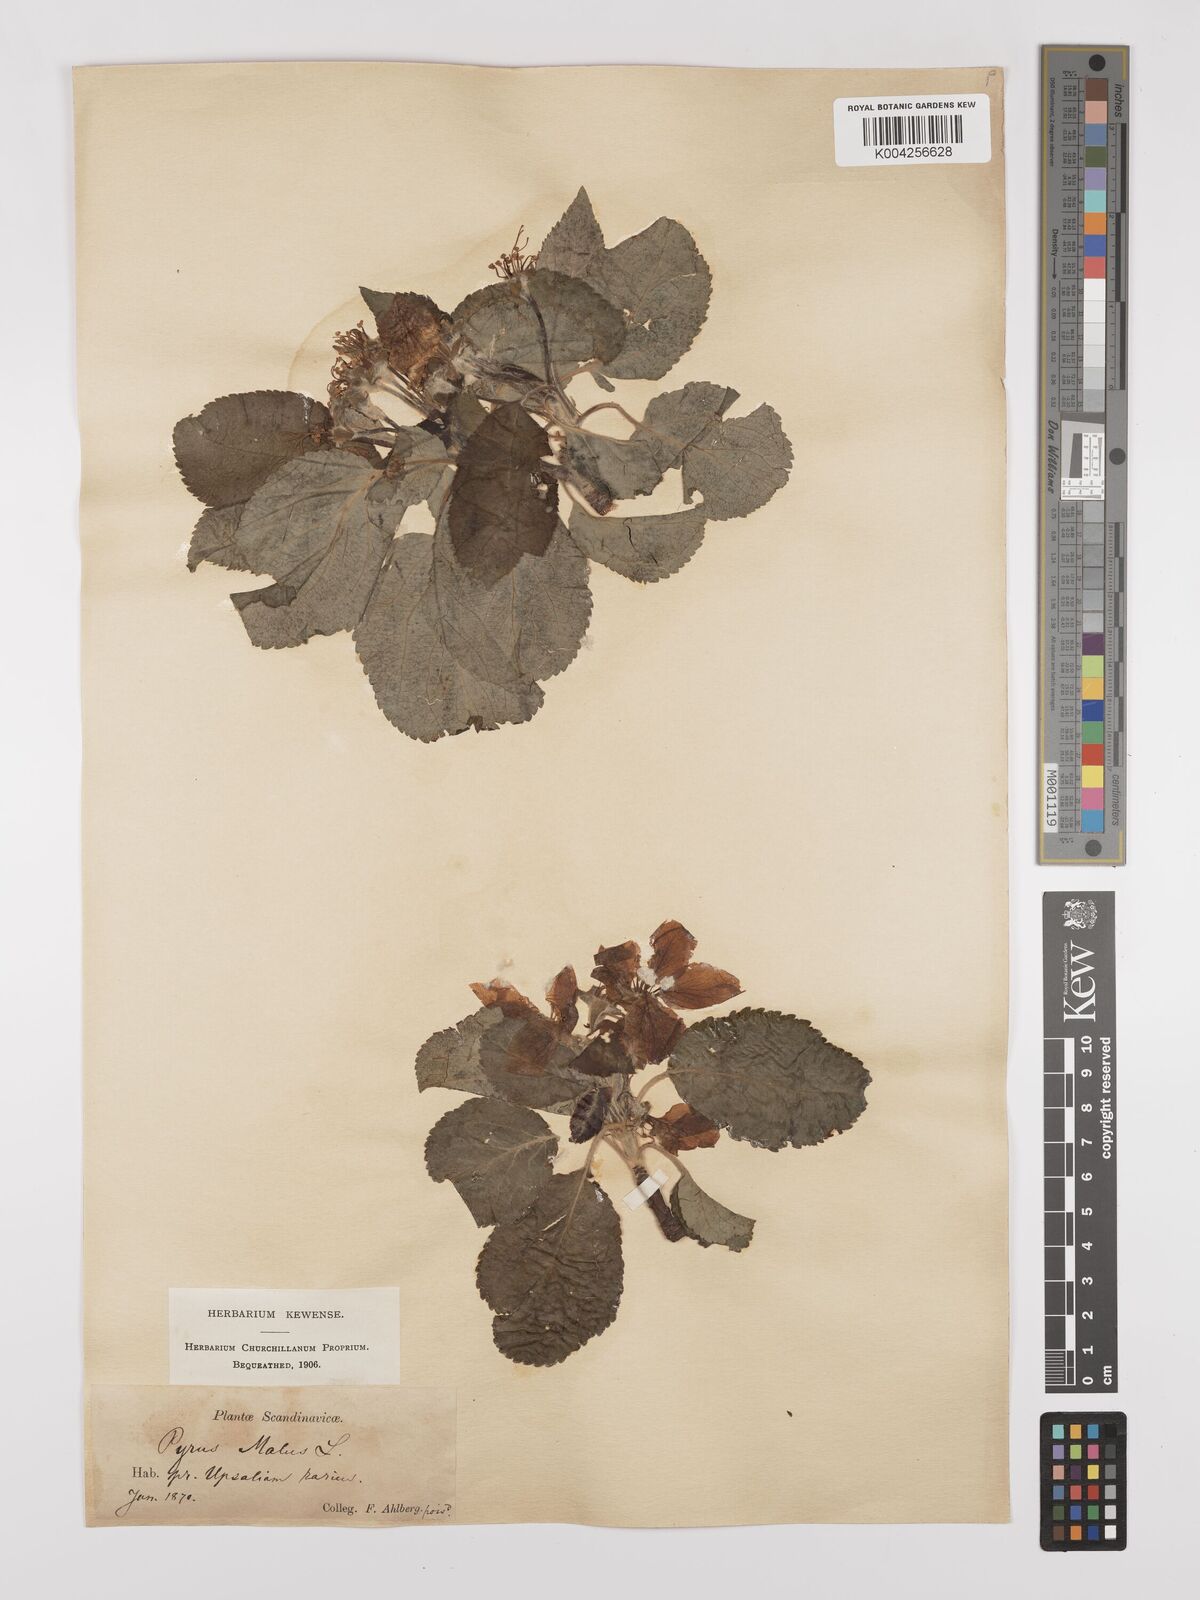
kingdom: Plantae
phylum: Tracheophyta
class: Magnoliopsida
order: Rosales
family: Rosaceae
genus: Malus
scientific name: Malus domestica
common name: Apple
